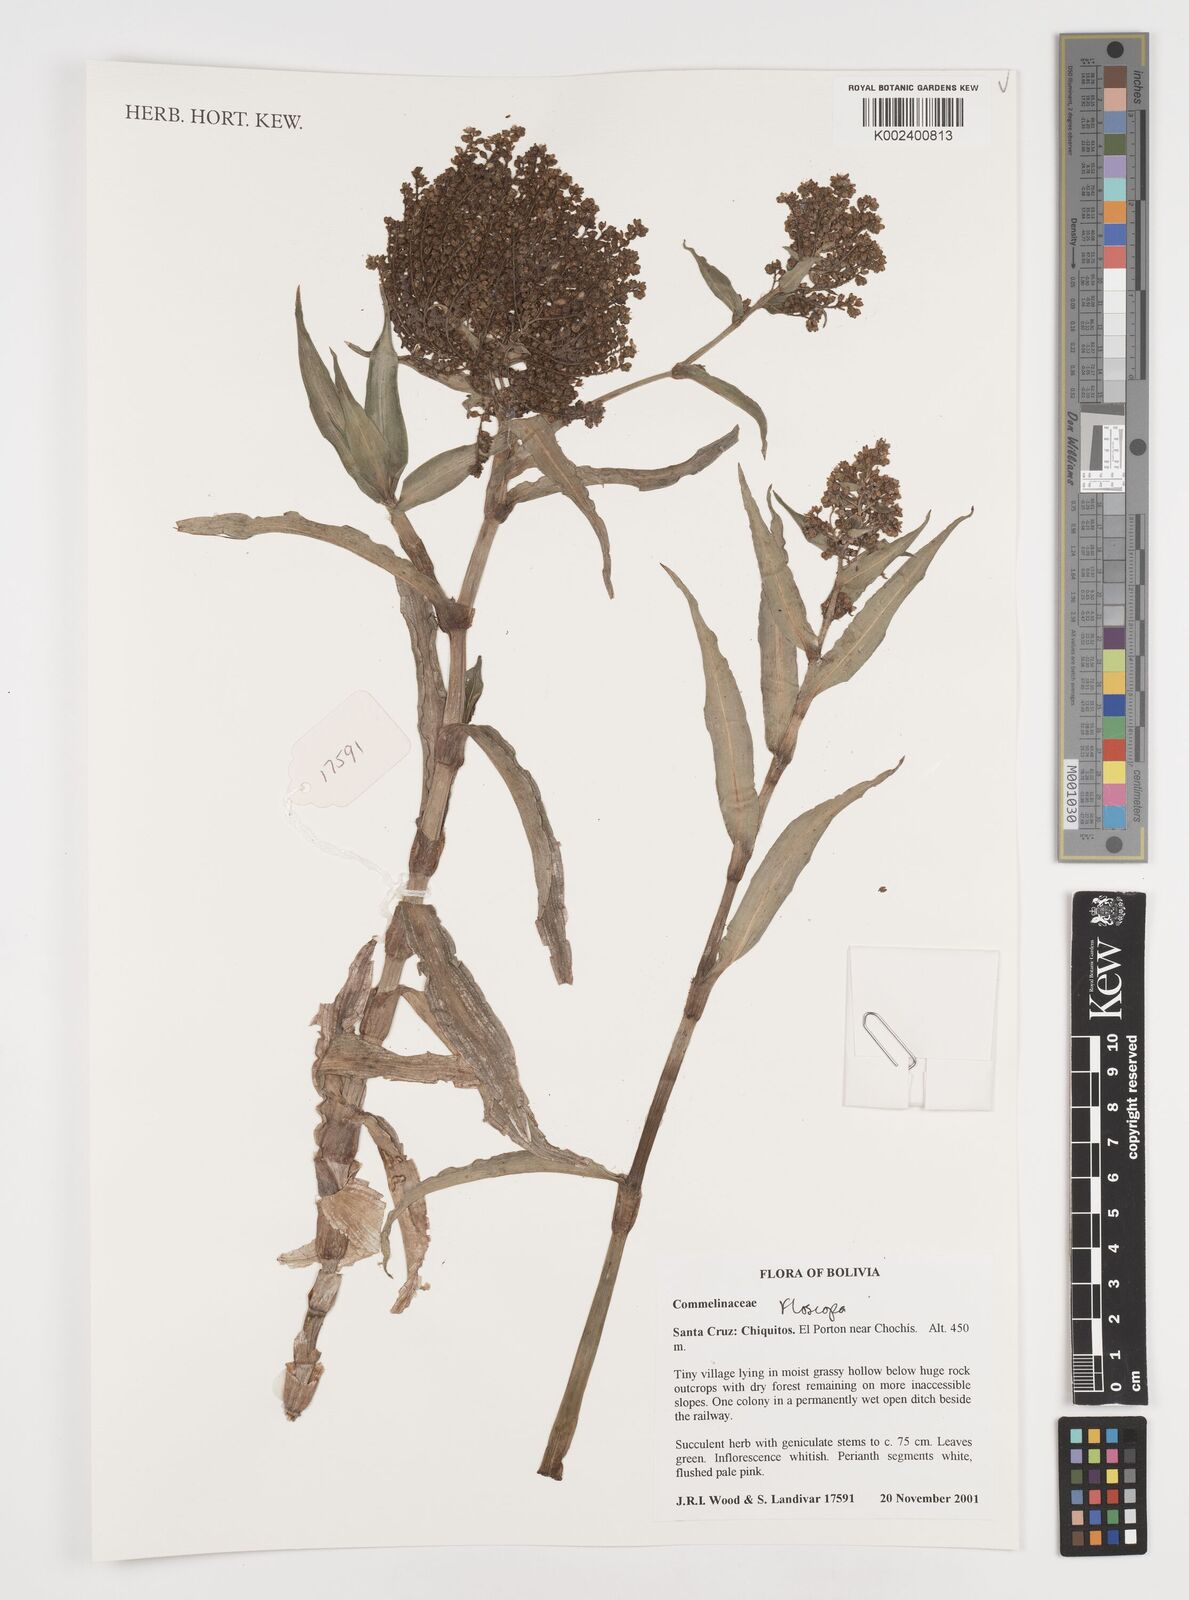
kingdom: Plantae
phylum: Tracheophyta
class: Liliopsida
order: Commelinales
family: Commelinaceae
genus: Floscopa
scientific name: Floscopa
